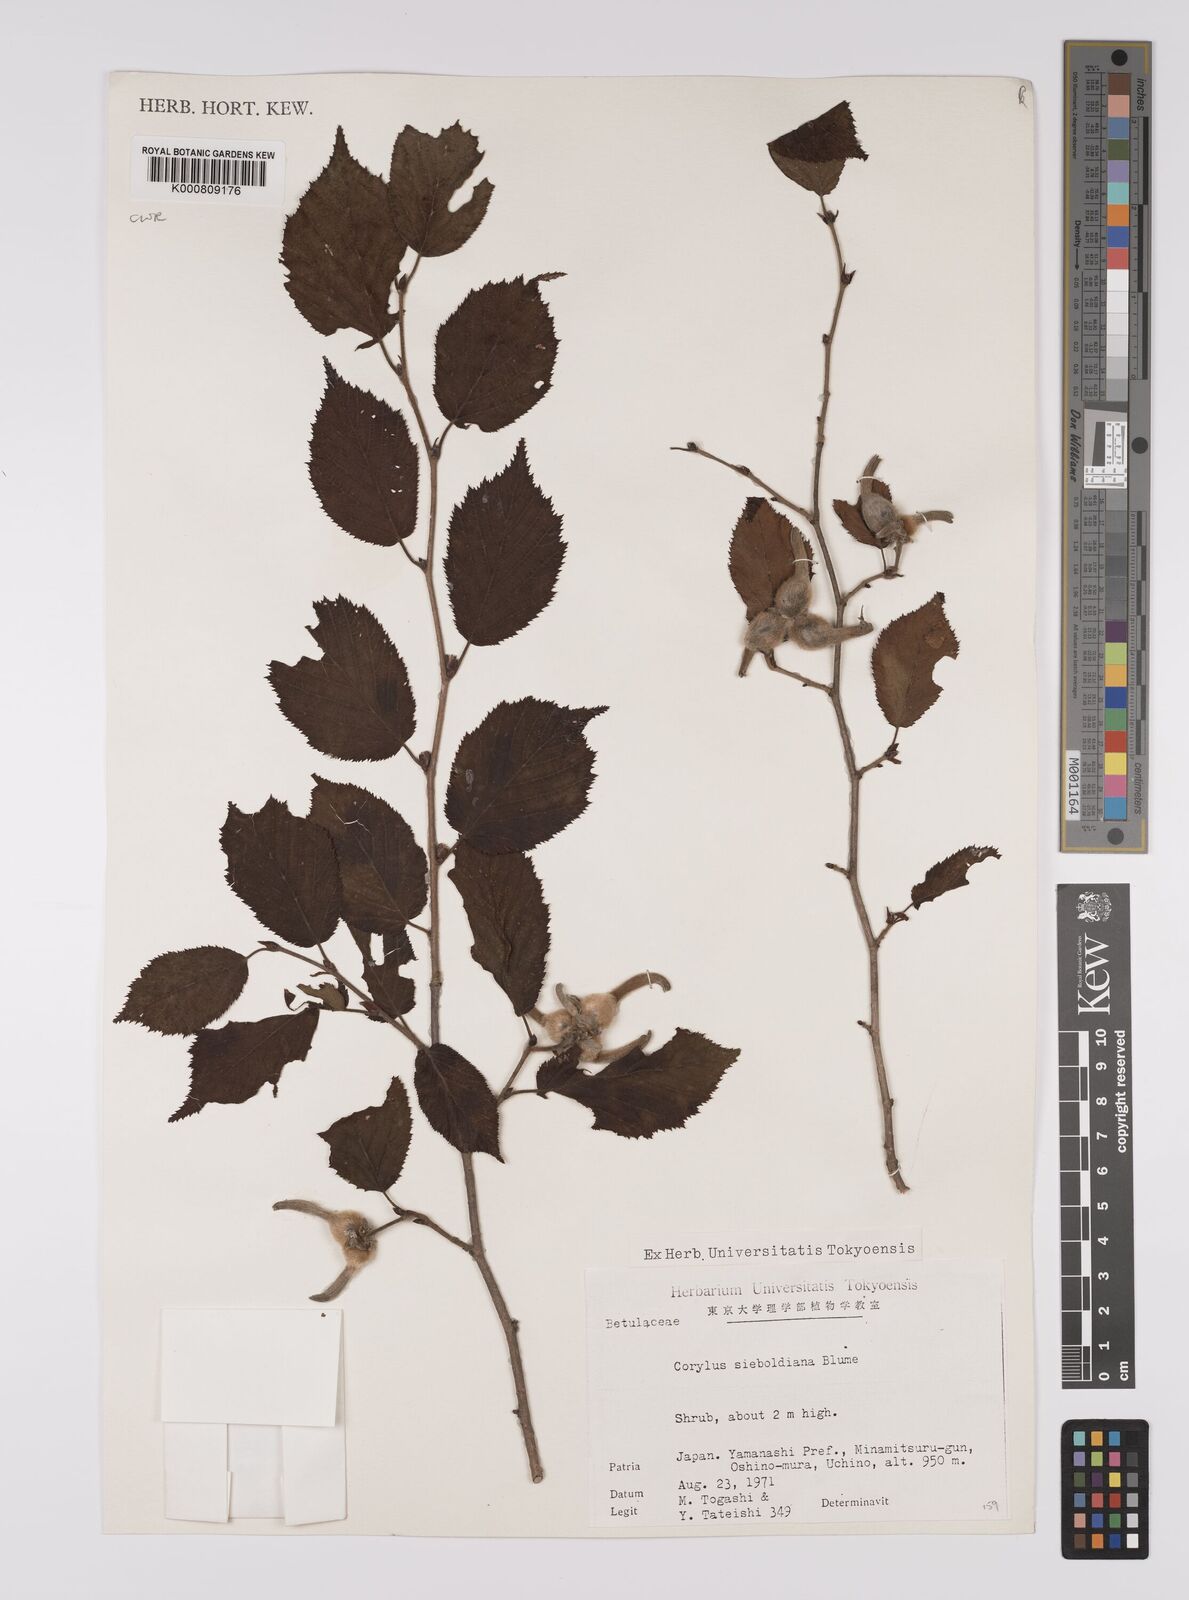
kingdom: Plantae
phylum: Tracheophyta
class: Magnoliopsida
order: Fagales
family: Betulaceae
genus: Corylus
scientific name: Corylus
